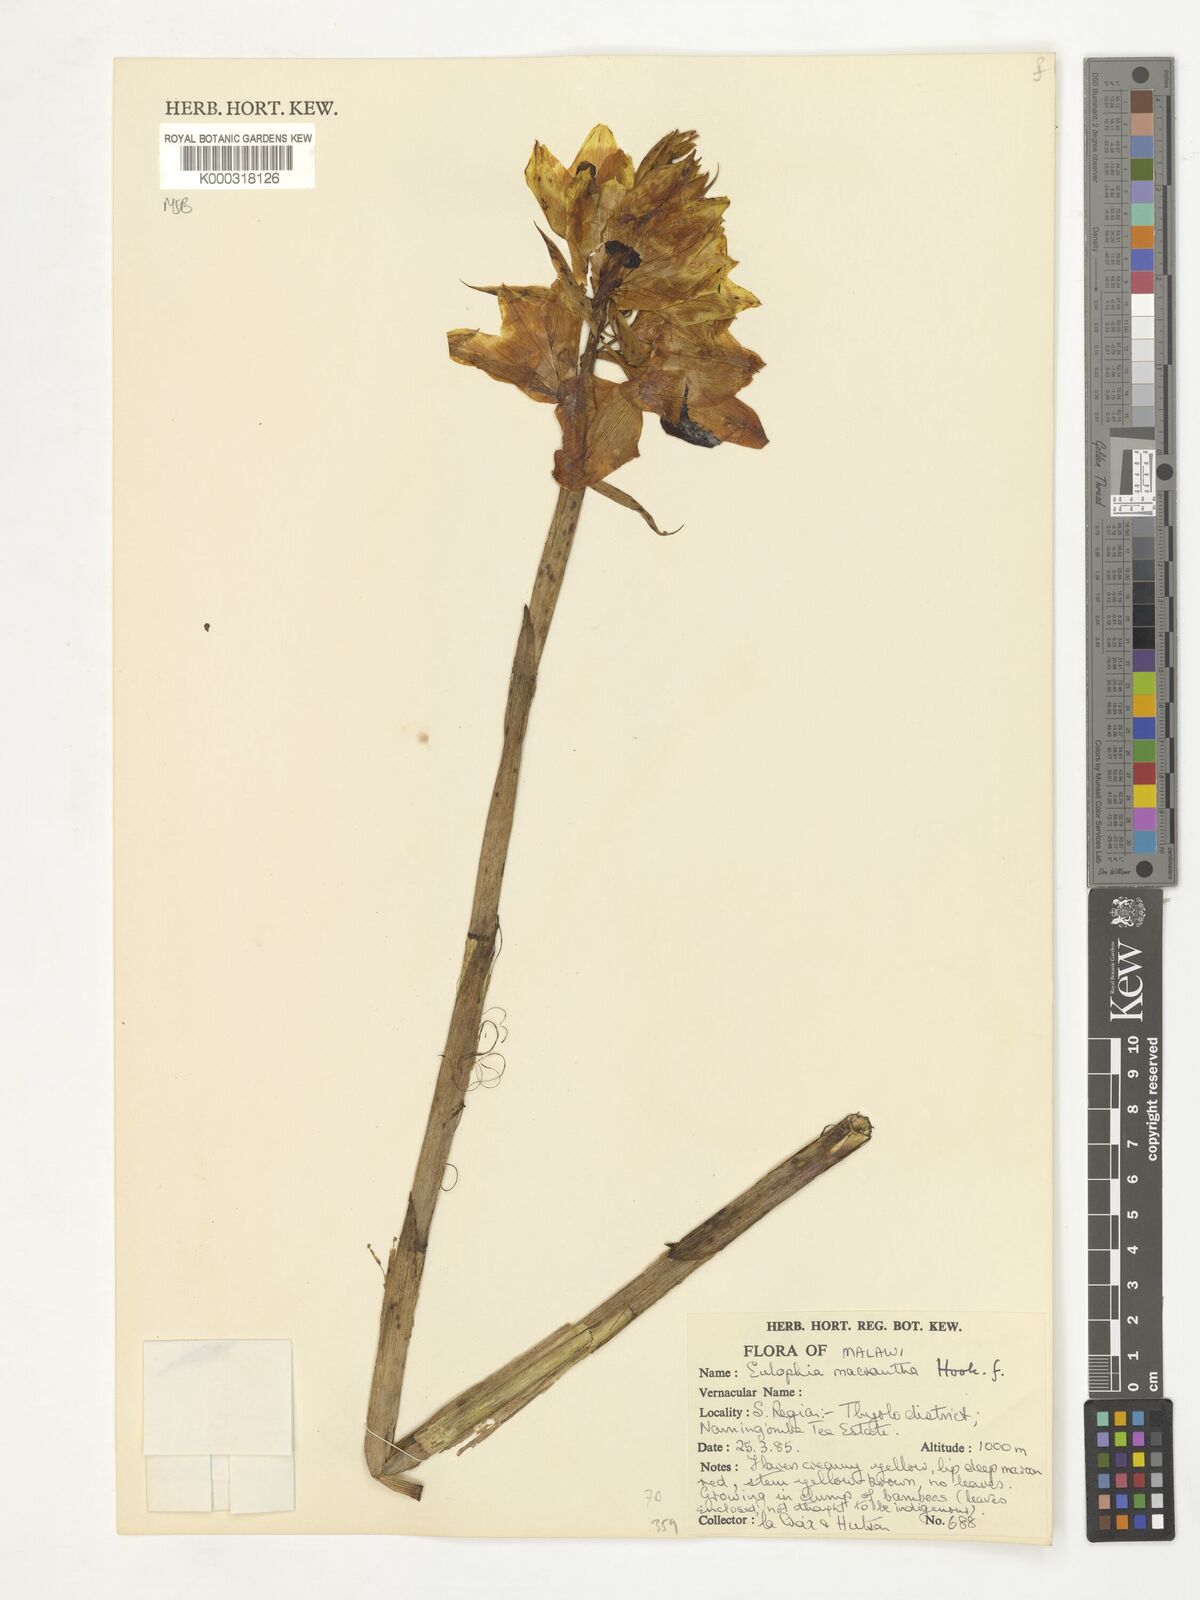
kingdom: Plantae
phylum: Tracheophyta
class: Liliopsida
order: Asparagales
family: Orchidaceae
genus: Eulophia
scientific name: Eulophia macrantha
